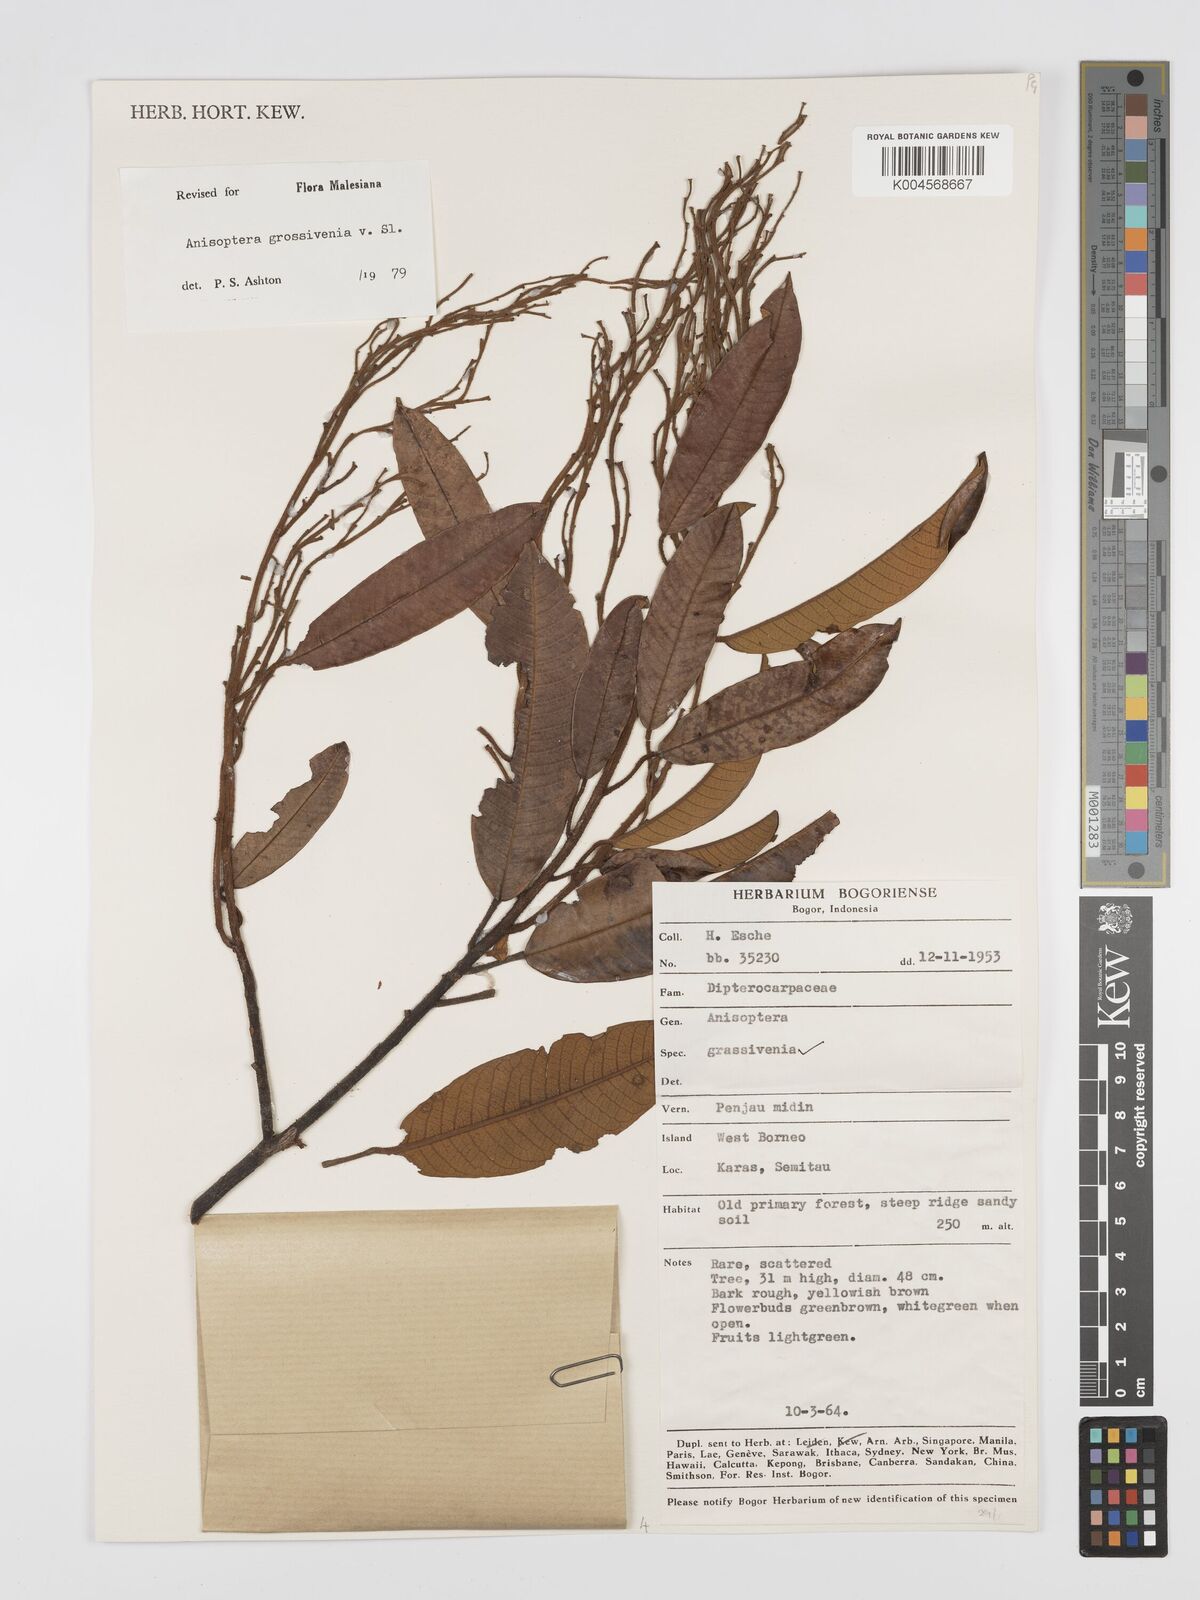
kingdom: Plantae
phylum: Tracheophyta
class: Magnoliopsida
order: Malvales
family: Dipterocarpaceae
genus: Anisoptera
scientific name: Anisoptera grossivenia
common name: Krabak
